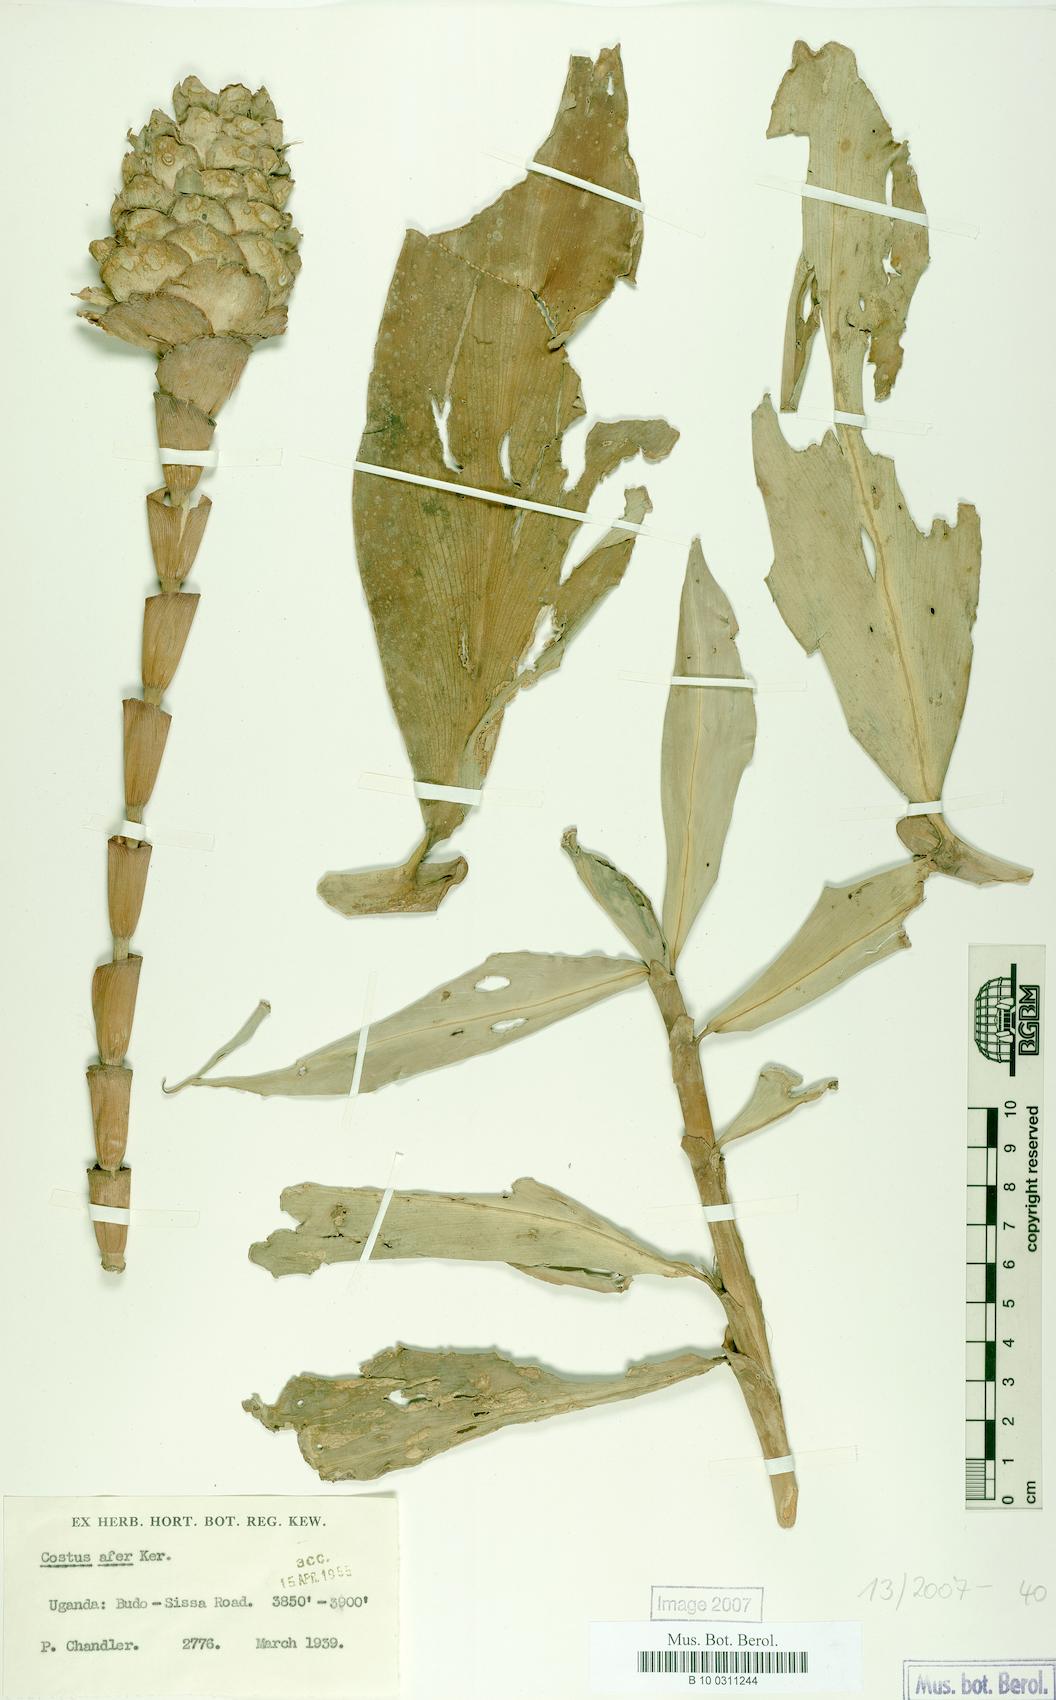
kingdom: Plantae
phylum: Tracheophyta
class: Liliopsida
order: Zingiberales
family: Costaceae
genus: Costus
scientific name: Costus dubius
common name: Costus
